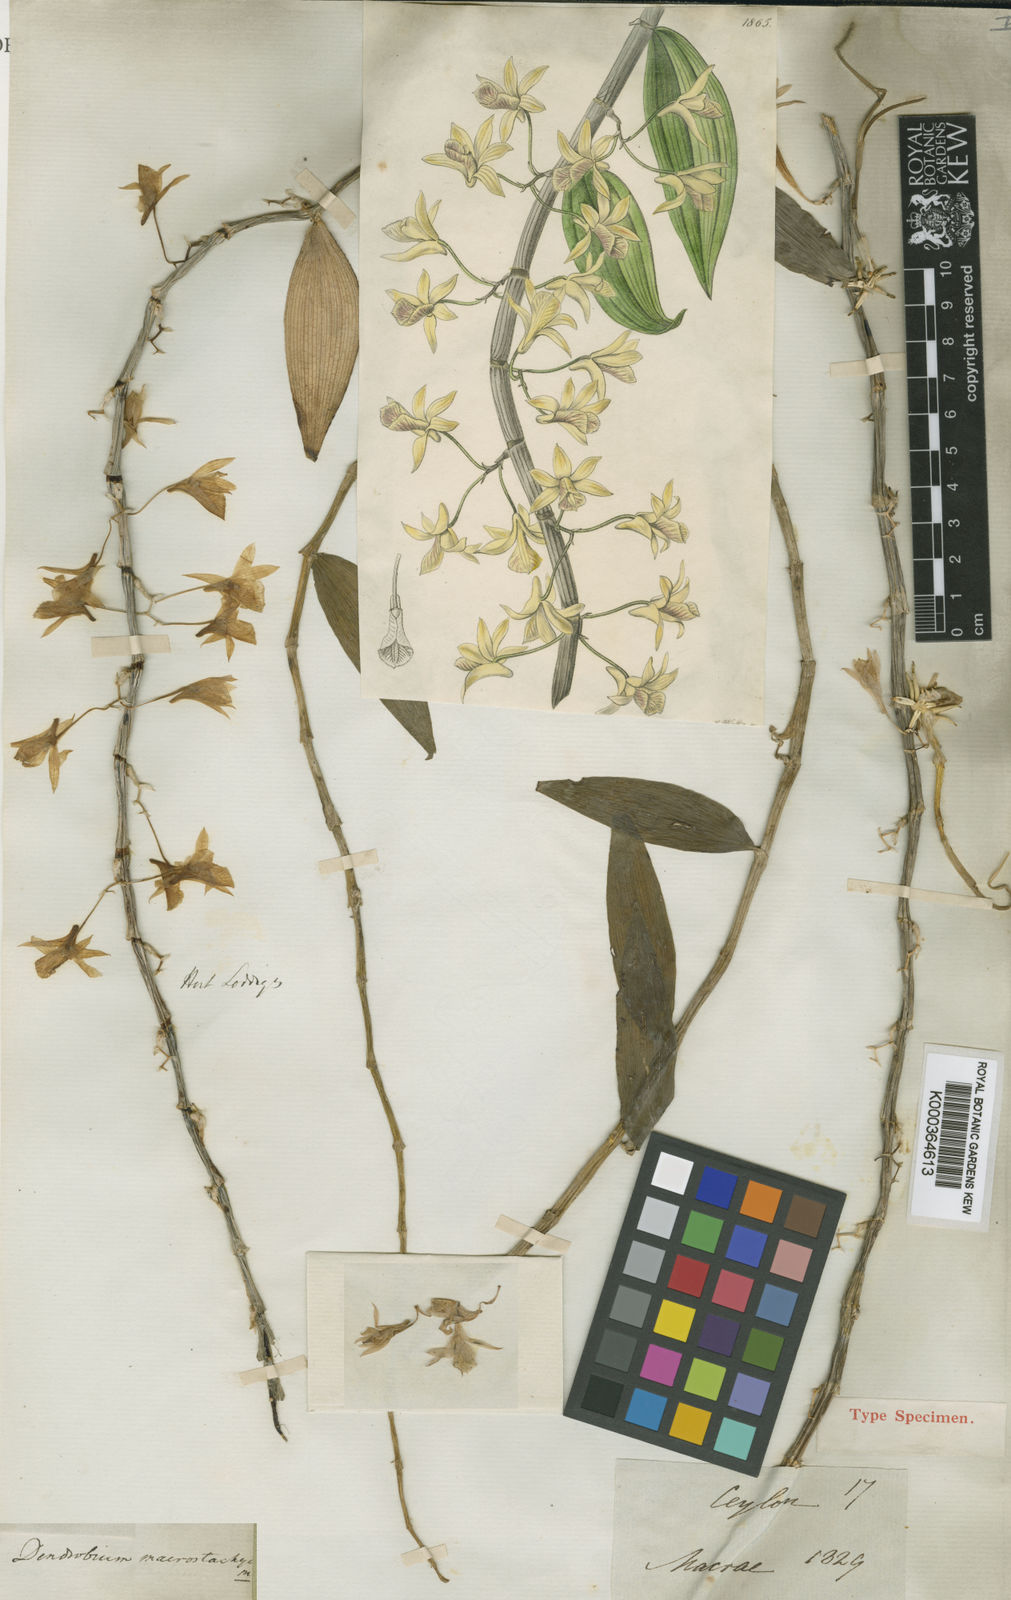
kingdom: Plantae
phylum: Tracheophyta
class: Liliopsida
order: Asparagales
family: Orchidaceae
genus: Dendrobium
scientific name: Dendrobium macrostachyum
